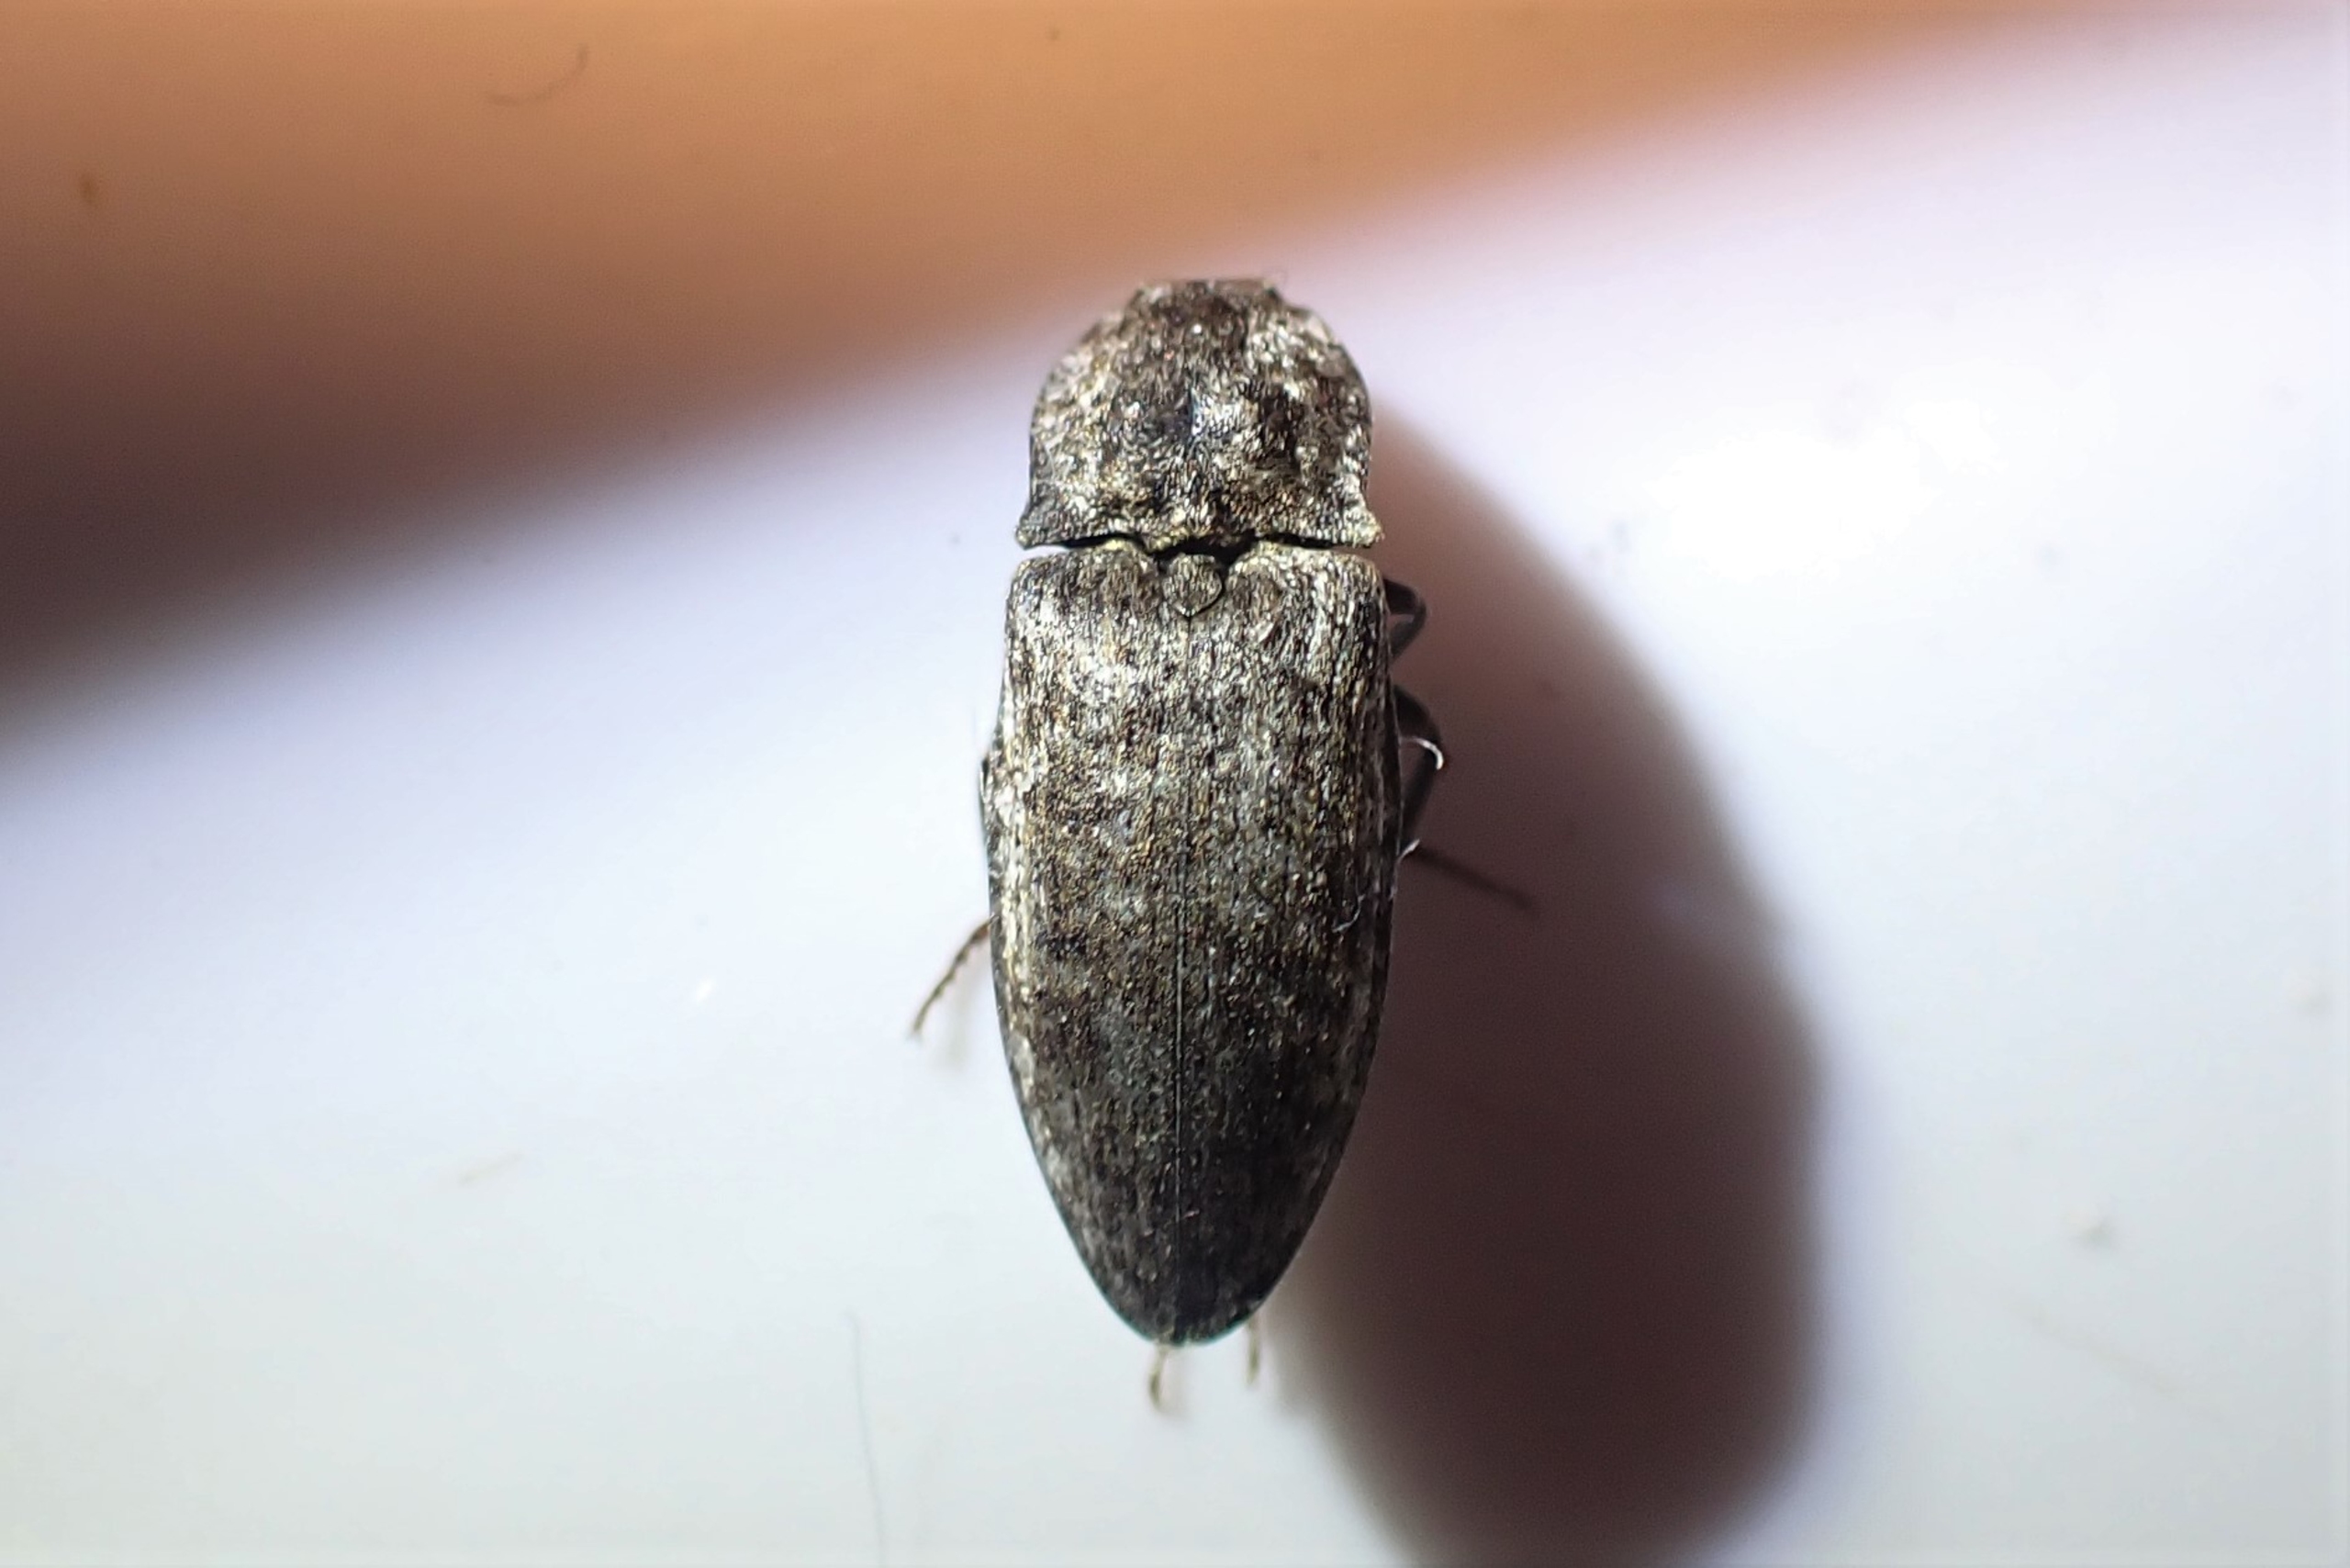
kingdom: Animalia
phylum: Arthropoda
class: Insecta
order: Coleoptera
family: Elateridae
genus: Agrypnus
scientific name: Agrypnus murinus
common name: Musegrå smælder
